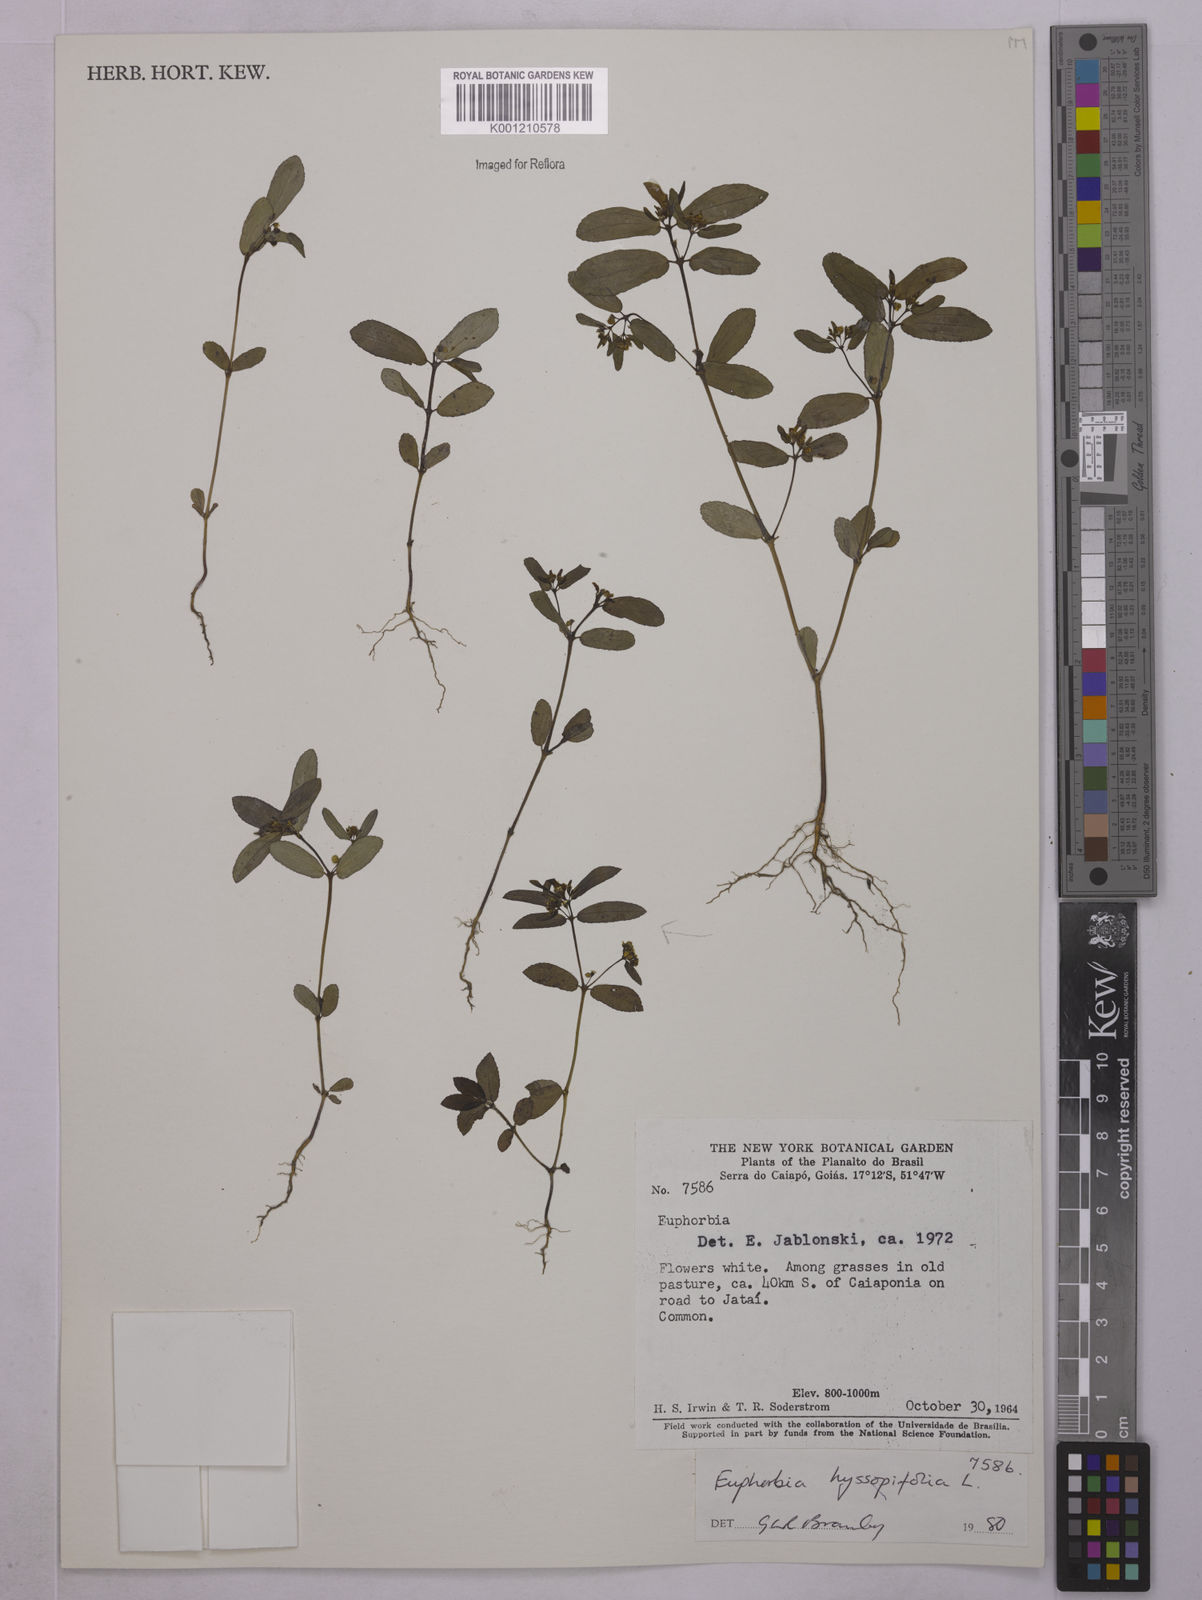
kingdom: Plantae
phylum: Tracheophyta
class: Magnoliopsida
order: Malpighiales
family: Euphorbiaceae
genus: Euphorbia
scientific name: Euphorbia hyssopifolia
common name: Hyssopleaf sandmat
